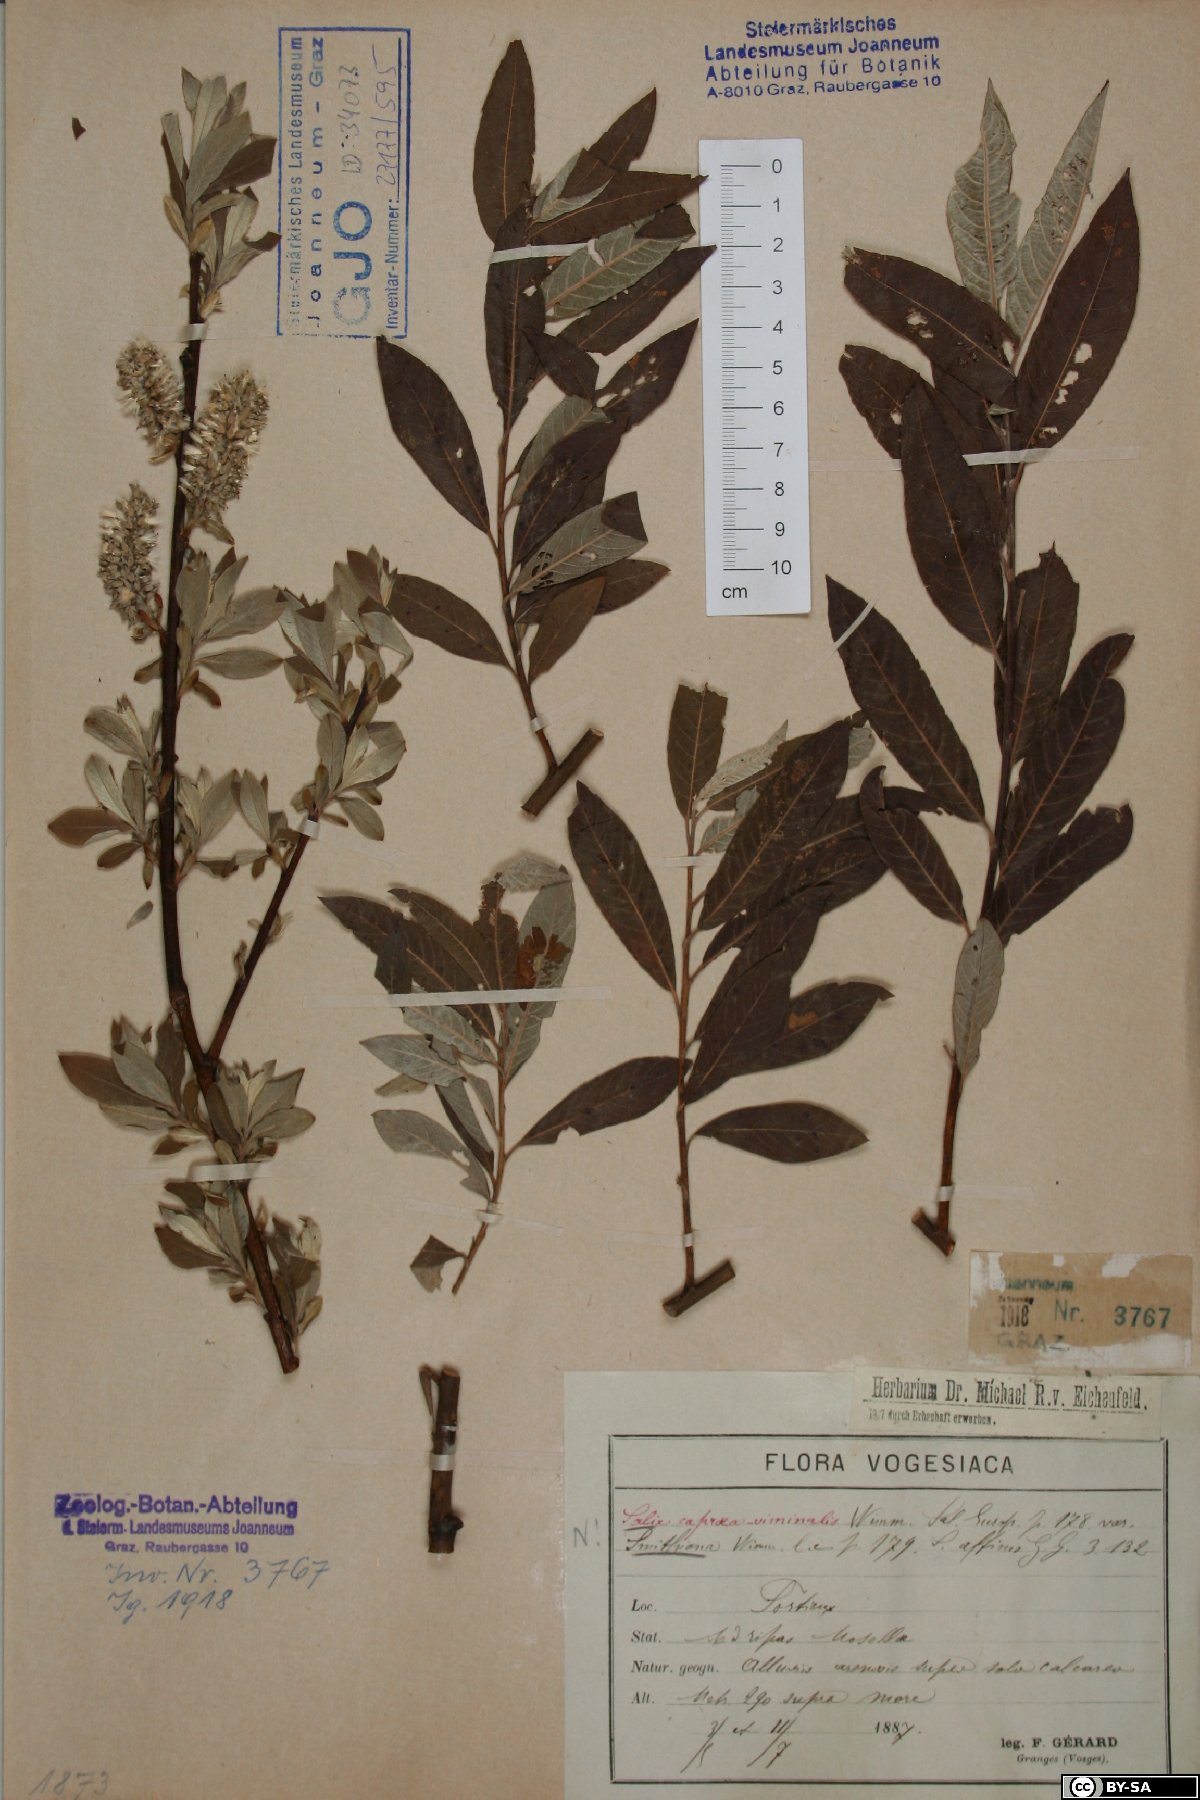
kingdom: Plantae
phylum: Tracheophyta
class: Magnoliopsida
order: Malpighiales
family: Salicaceae
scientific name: Salicaceae
